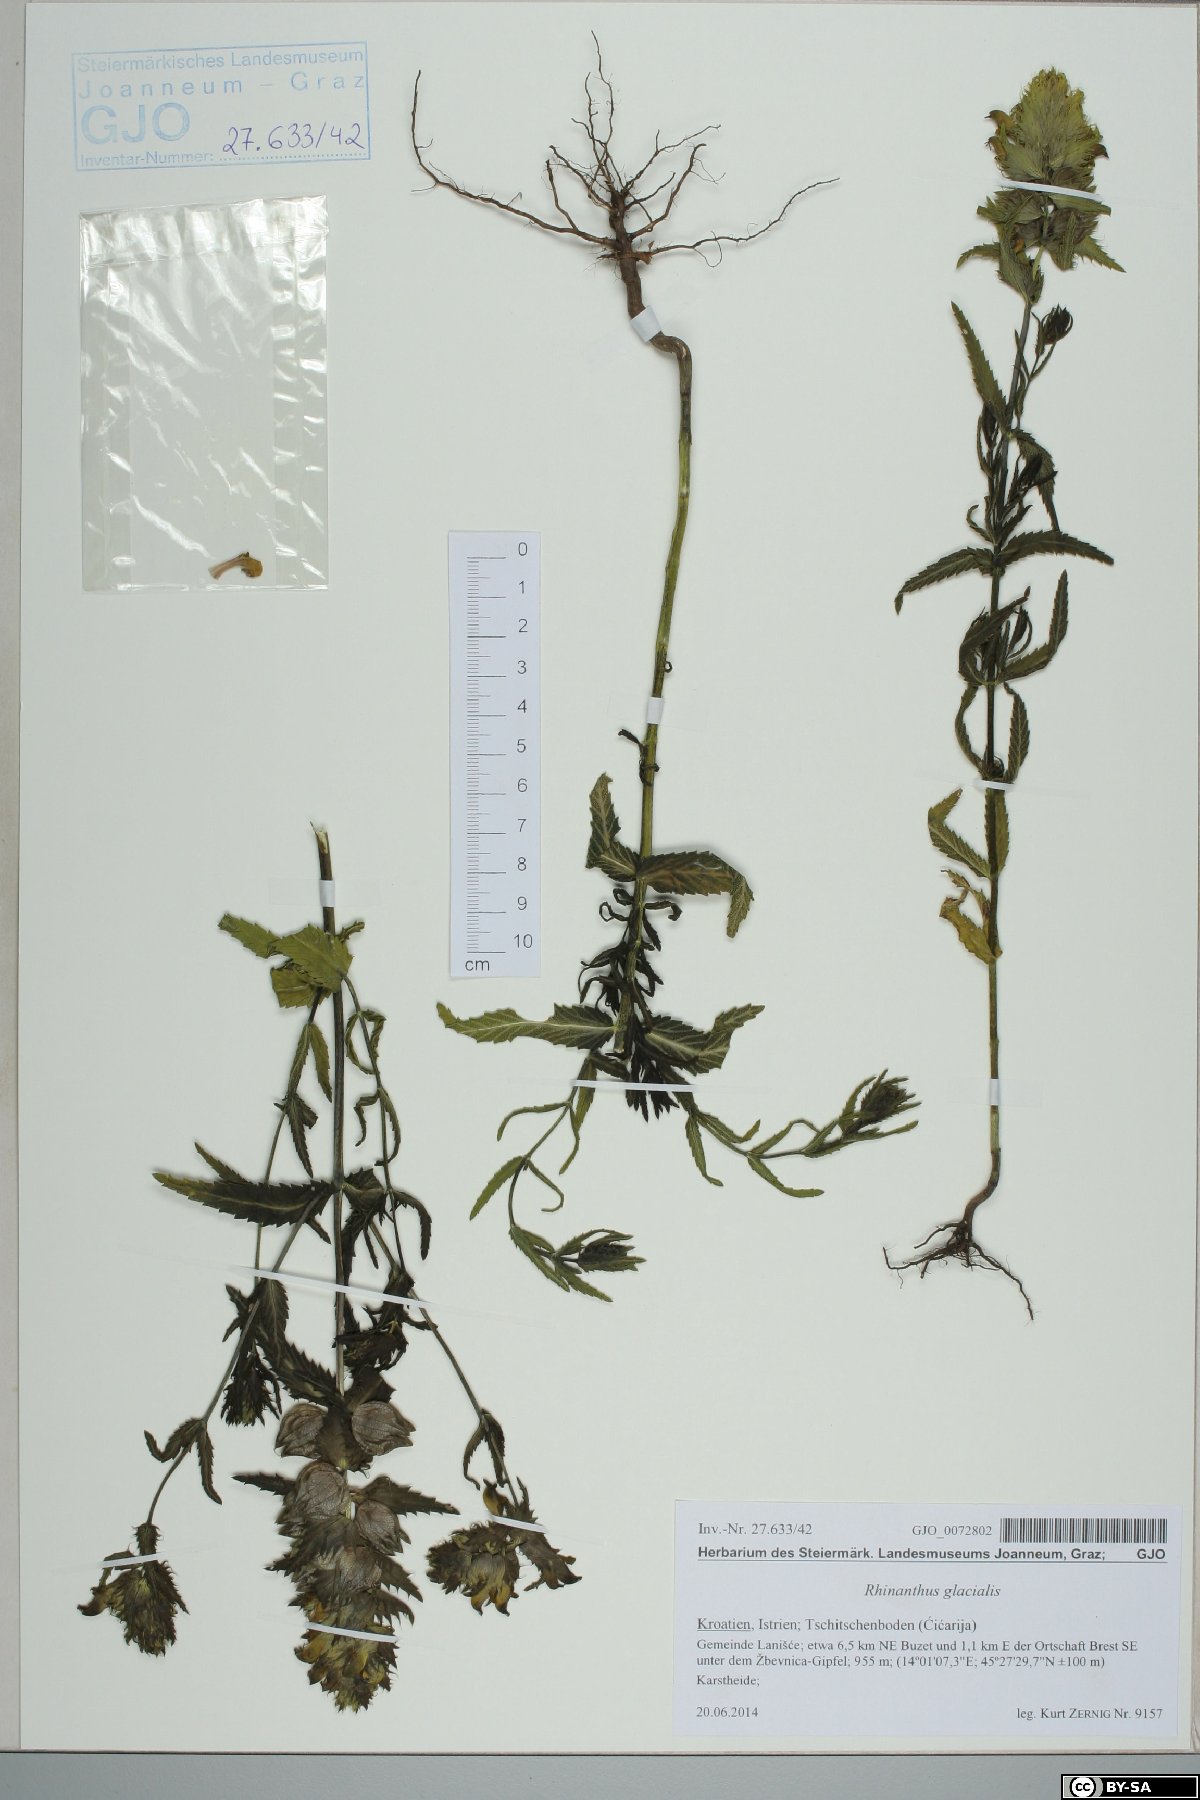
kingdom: Plantae
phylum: Tracheophyta
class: Magnoliopsida
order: Lamiales
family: Orobanchaceae
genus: Rhinanthus
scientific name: Rhinanthus glacialis
